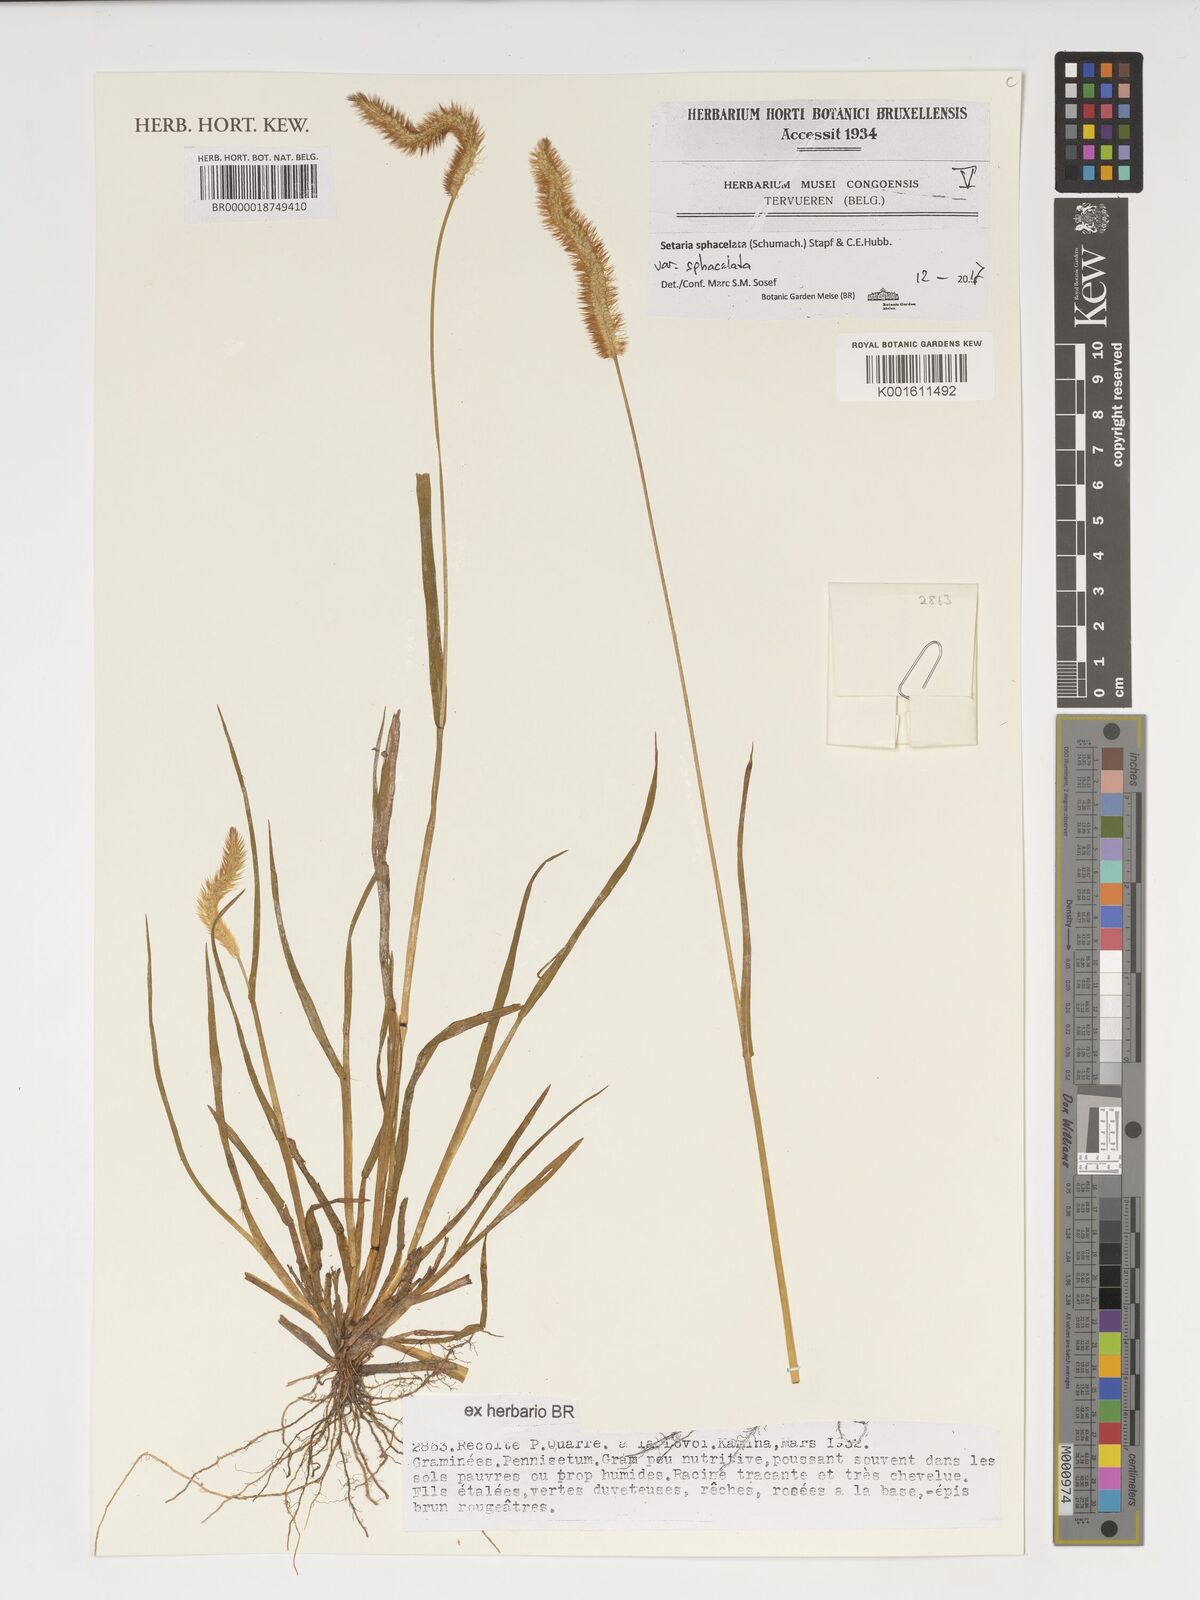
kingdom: Plantae
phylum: Tracheophyta
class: Liliopsida
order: Poales
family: Poaceae
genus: Setaria
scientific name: Setaria sphacelata
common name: African bristlegrass
